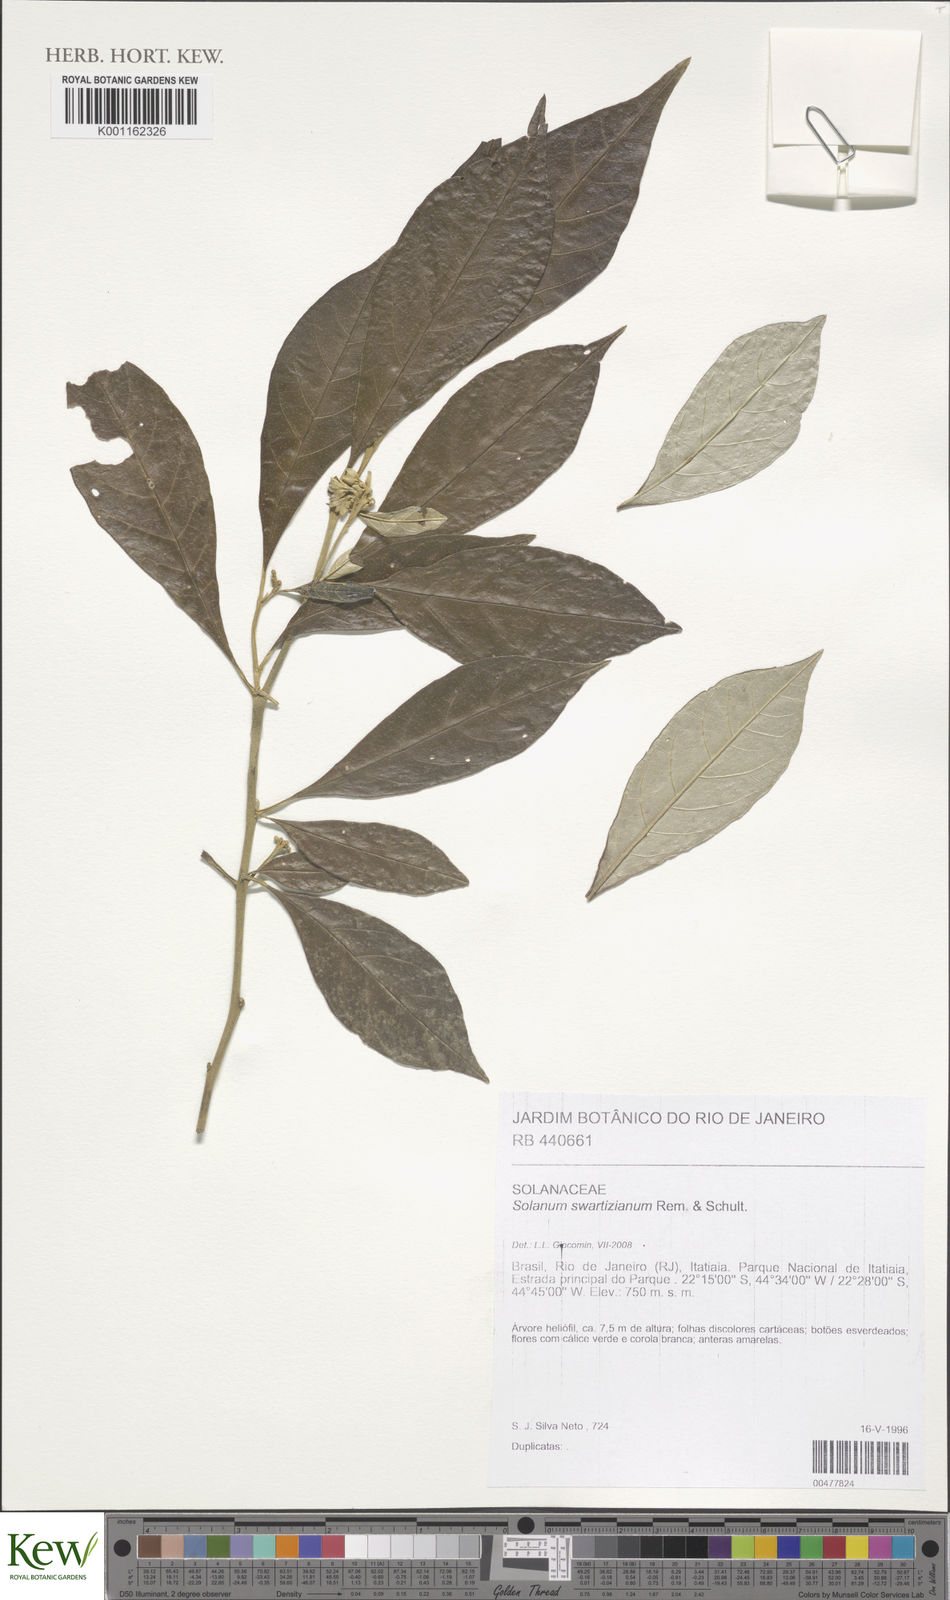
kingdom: Plantae
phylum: Tracheophyta
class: Magnoliopsida
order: Solanales
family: Solanaceae
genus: Solanum
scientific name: Solanum swartzianum
